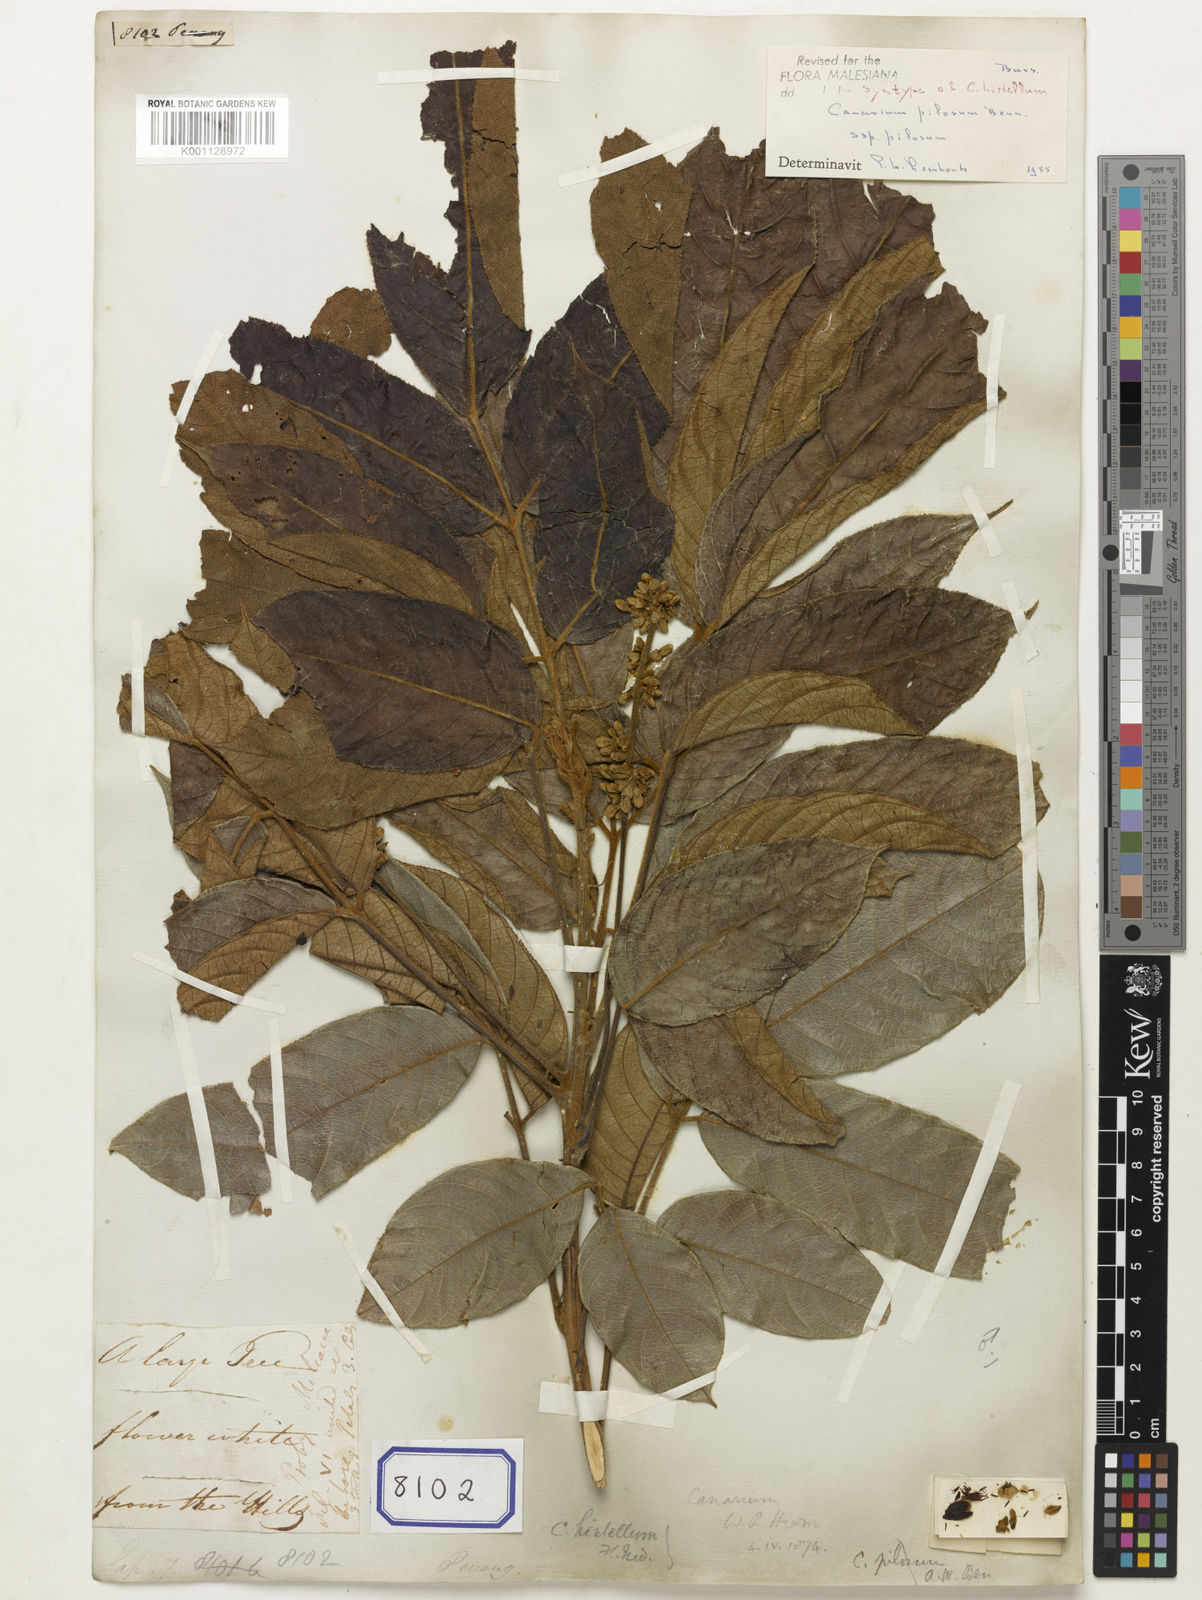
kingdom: Plantae
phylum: Tracheophyta
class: Magnoliopsida
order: Sapindales
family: Sapindaceae
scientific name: Sapindaceae
